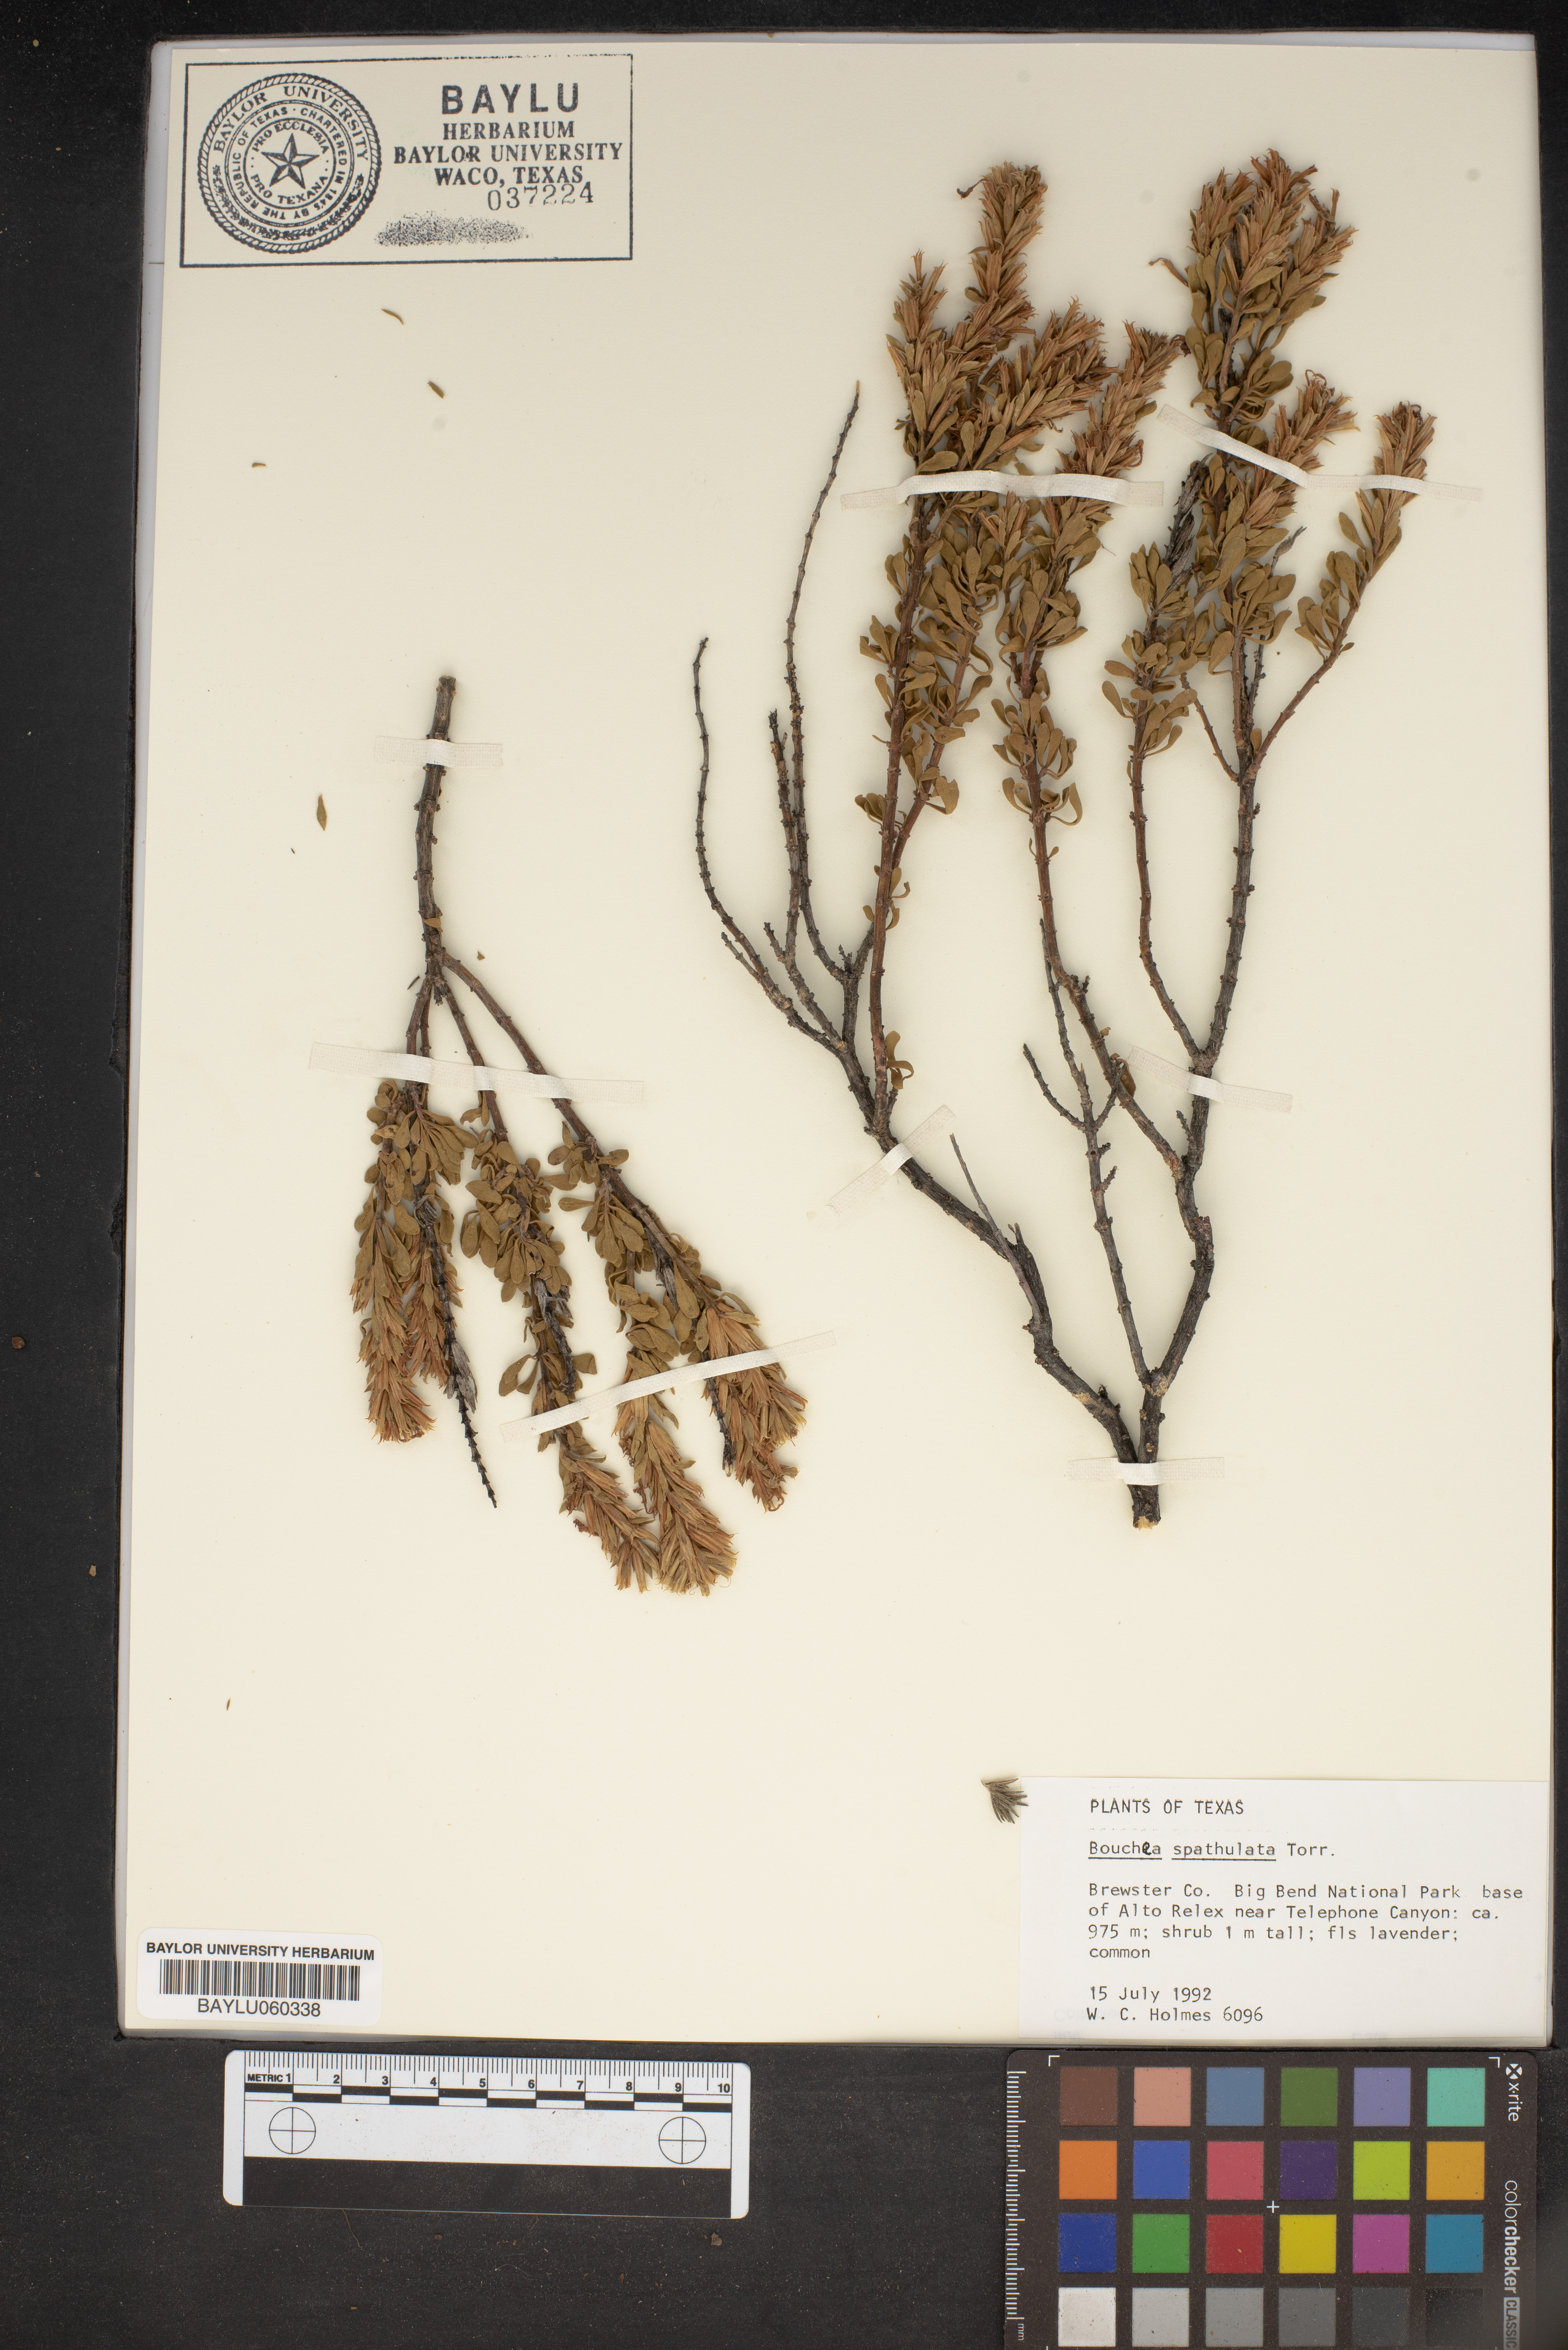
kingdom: Plantae
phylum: Tracheophyta
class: Magnoliopsida
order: Lamiales
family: Verbenaceae
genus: Bouchea
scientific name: Bouchea spathulata
